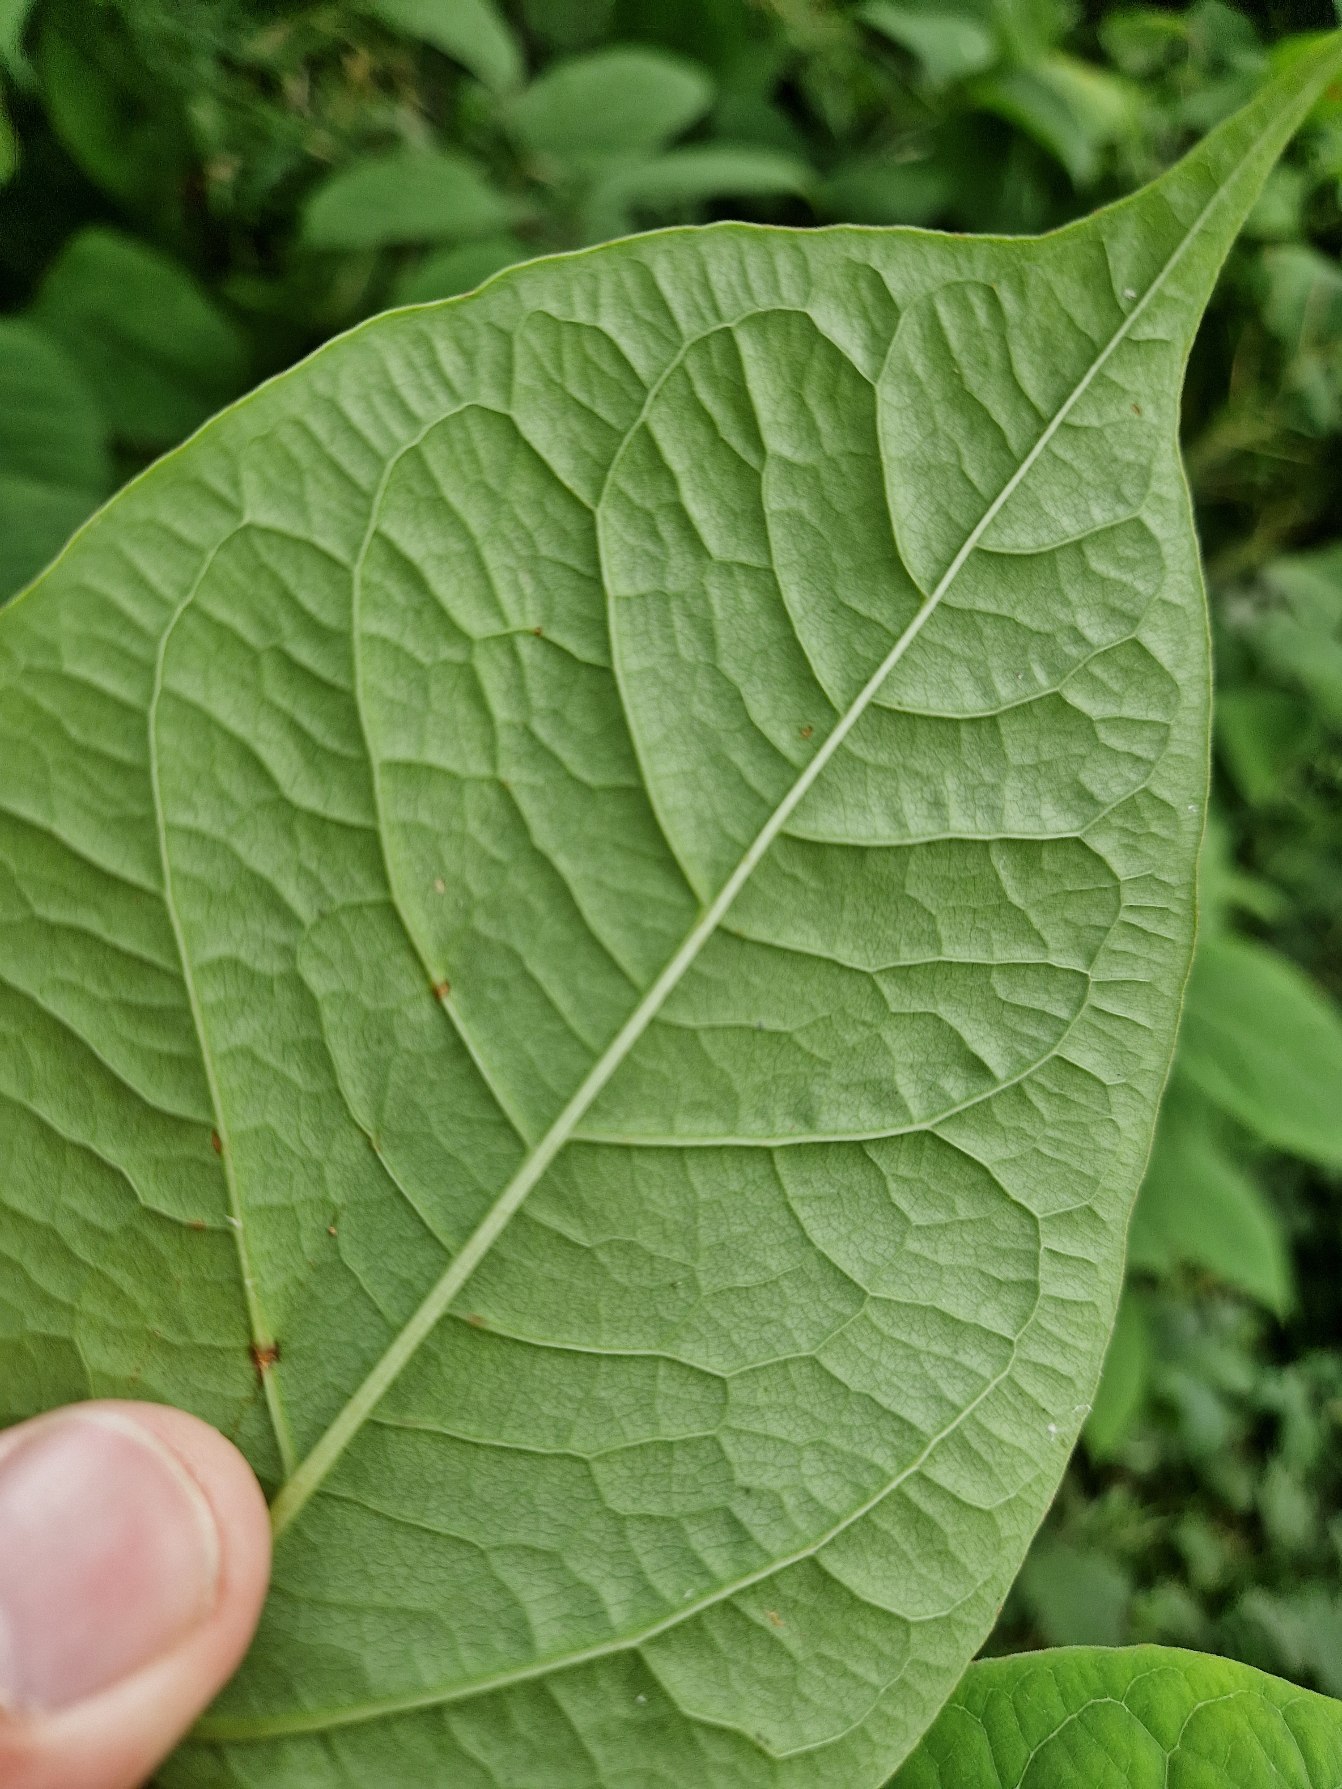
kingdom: Plantae
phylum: Tracheophyta
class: Magnoliopsida
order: Caryophyllales
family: Polygonaceae
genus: Reynoutria
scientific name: Reynoutria japonica
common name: Japan-pileurt
